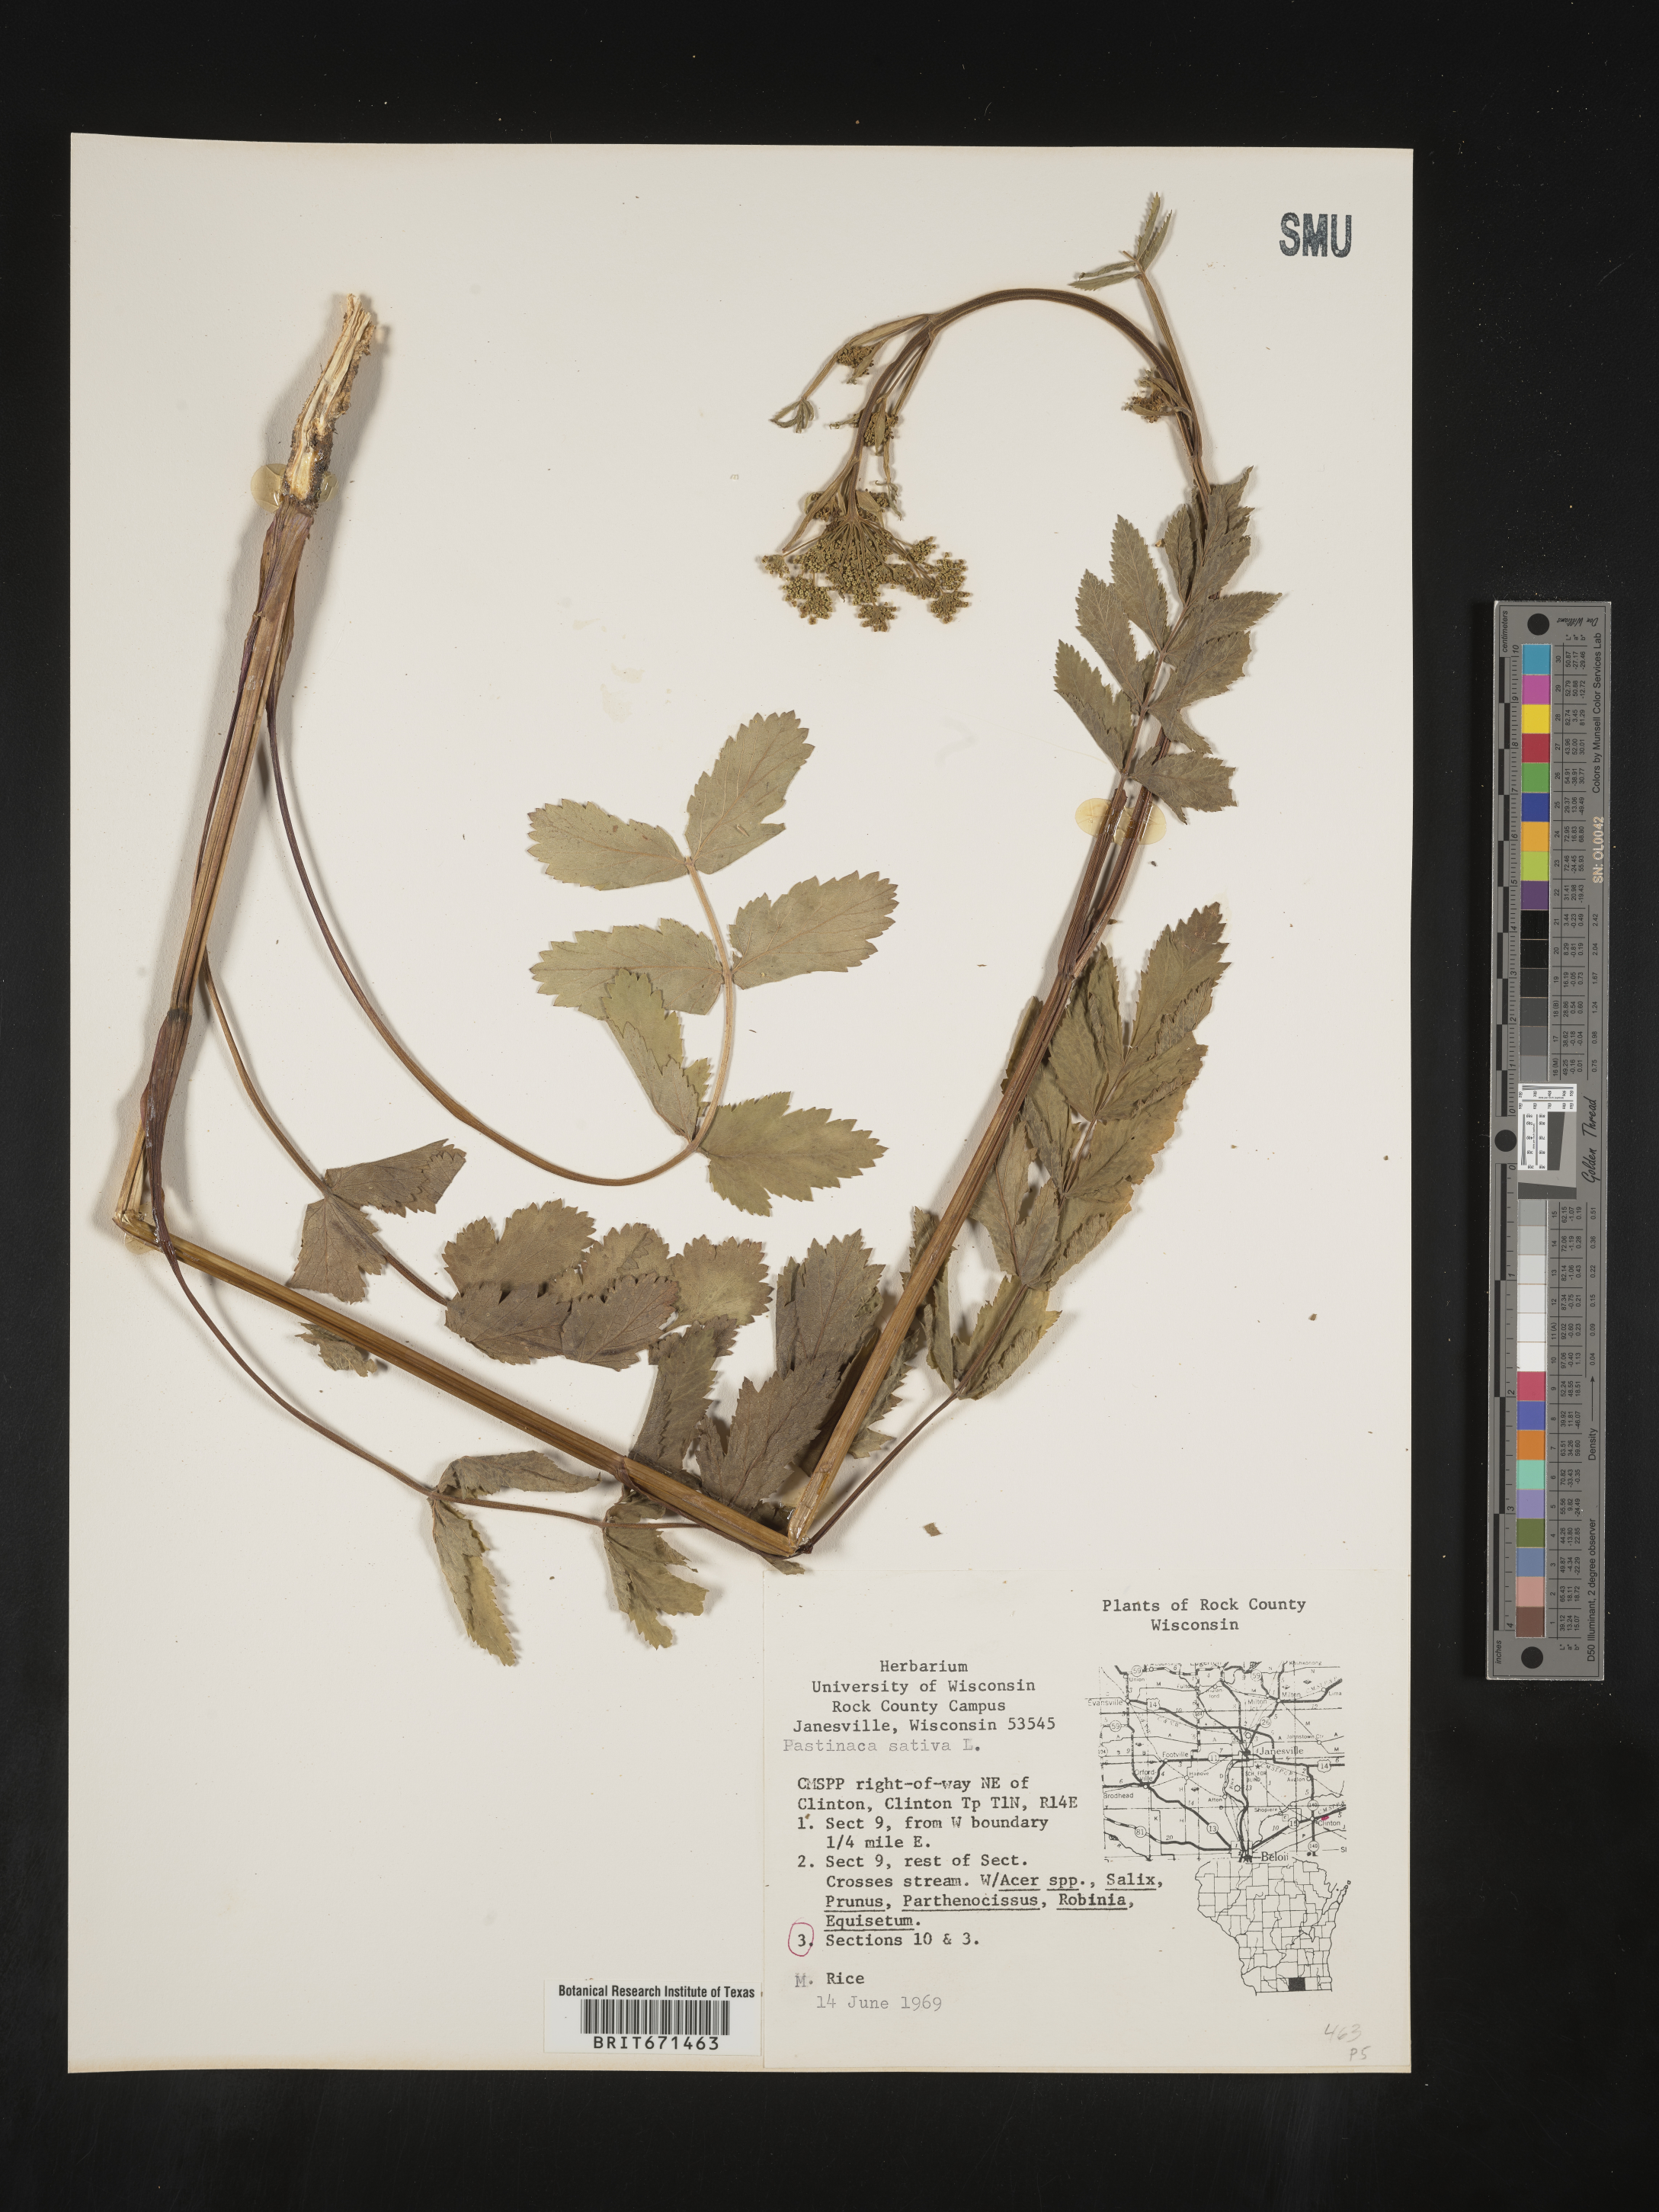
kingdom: Plantae
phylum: Tracheophyta
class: Magnoliopsida
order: Apiales
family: Apiaceae
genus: Pastinaca
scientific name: Pastinaca
